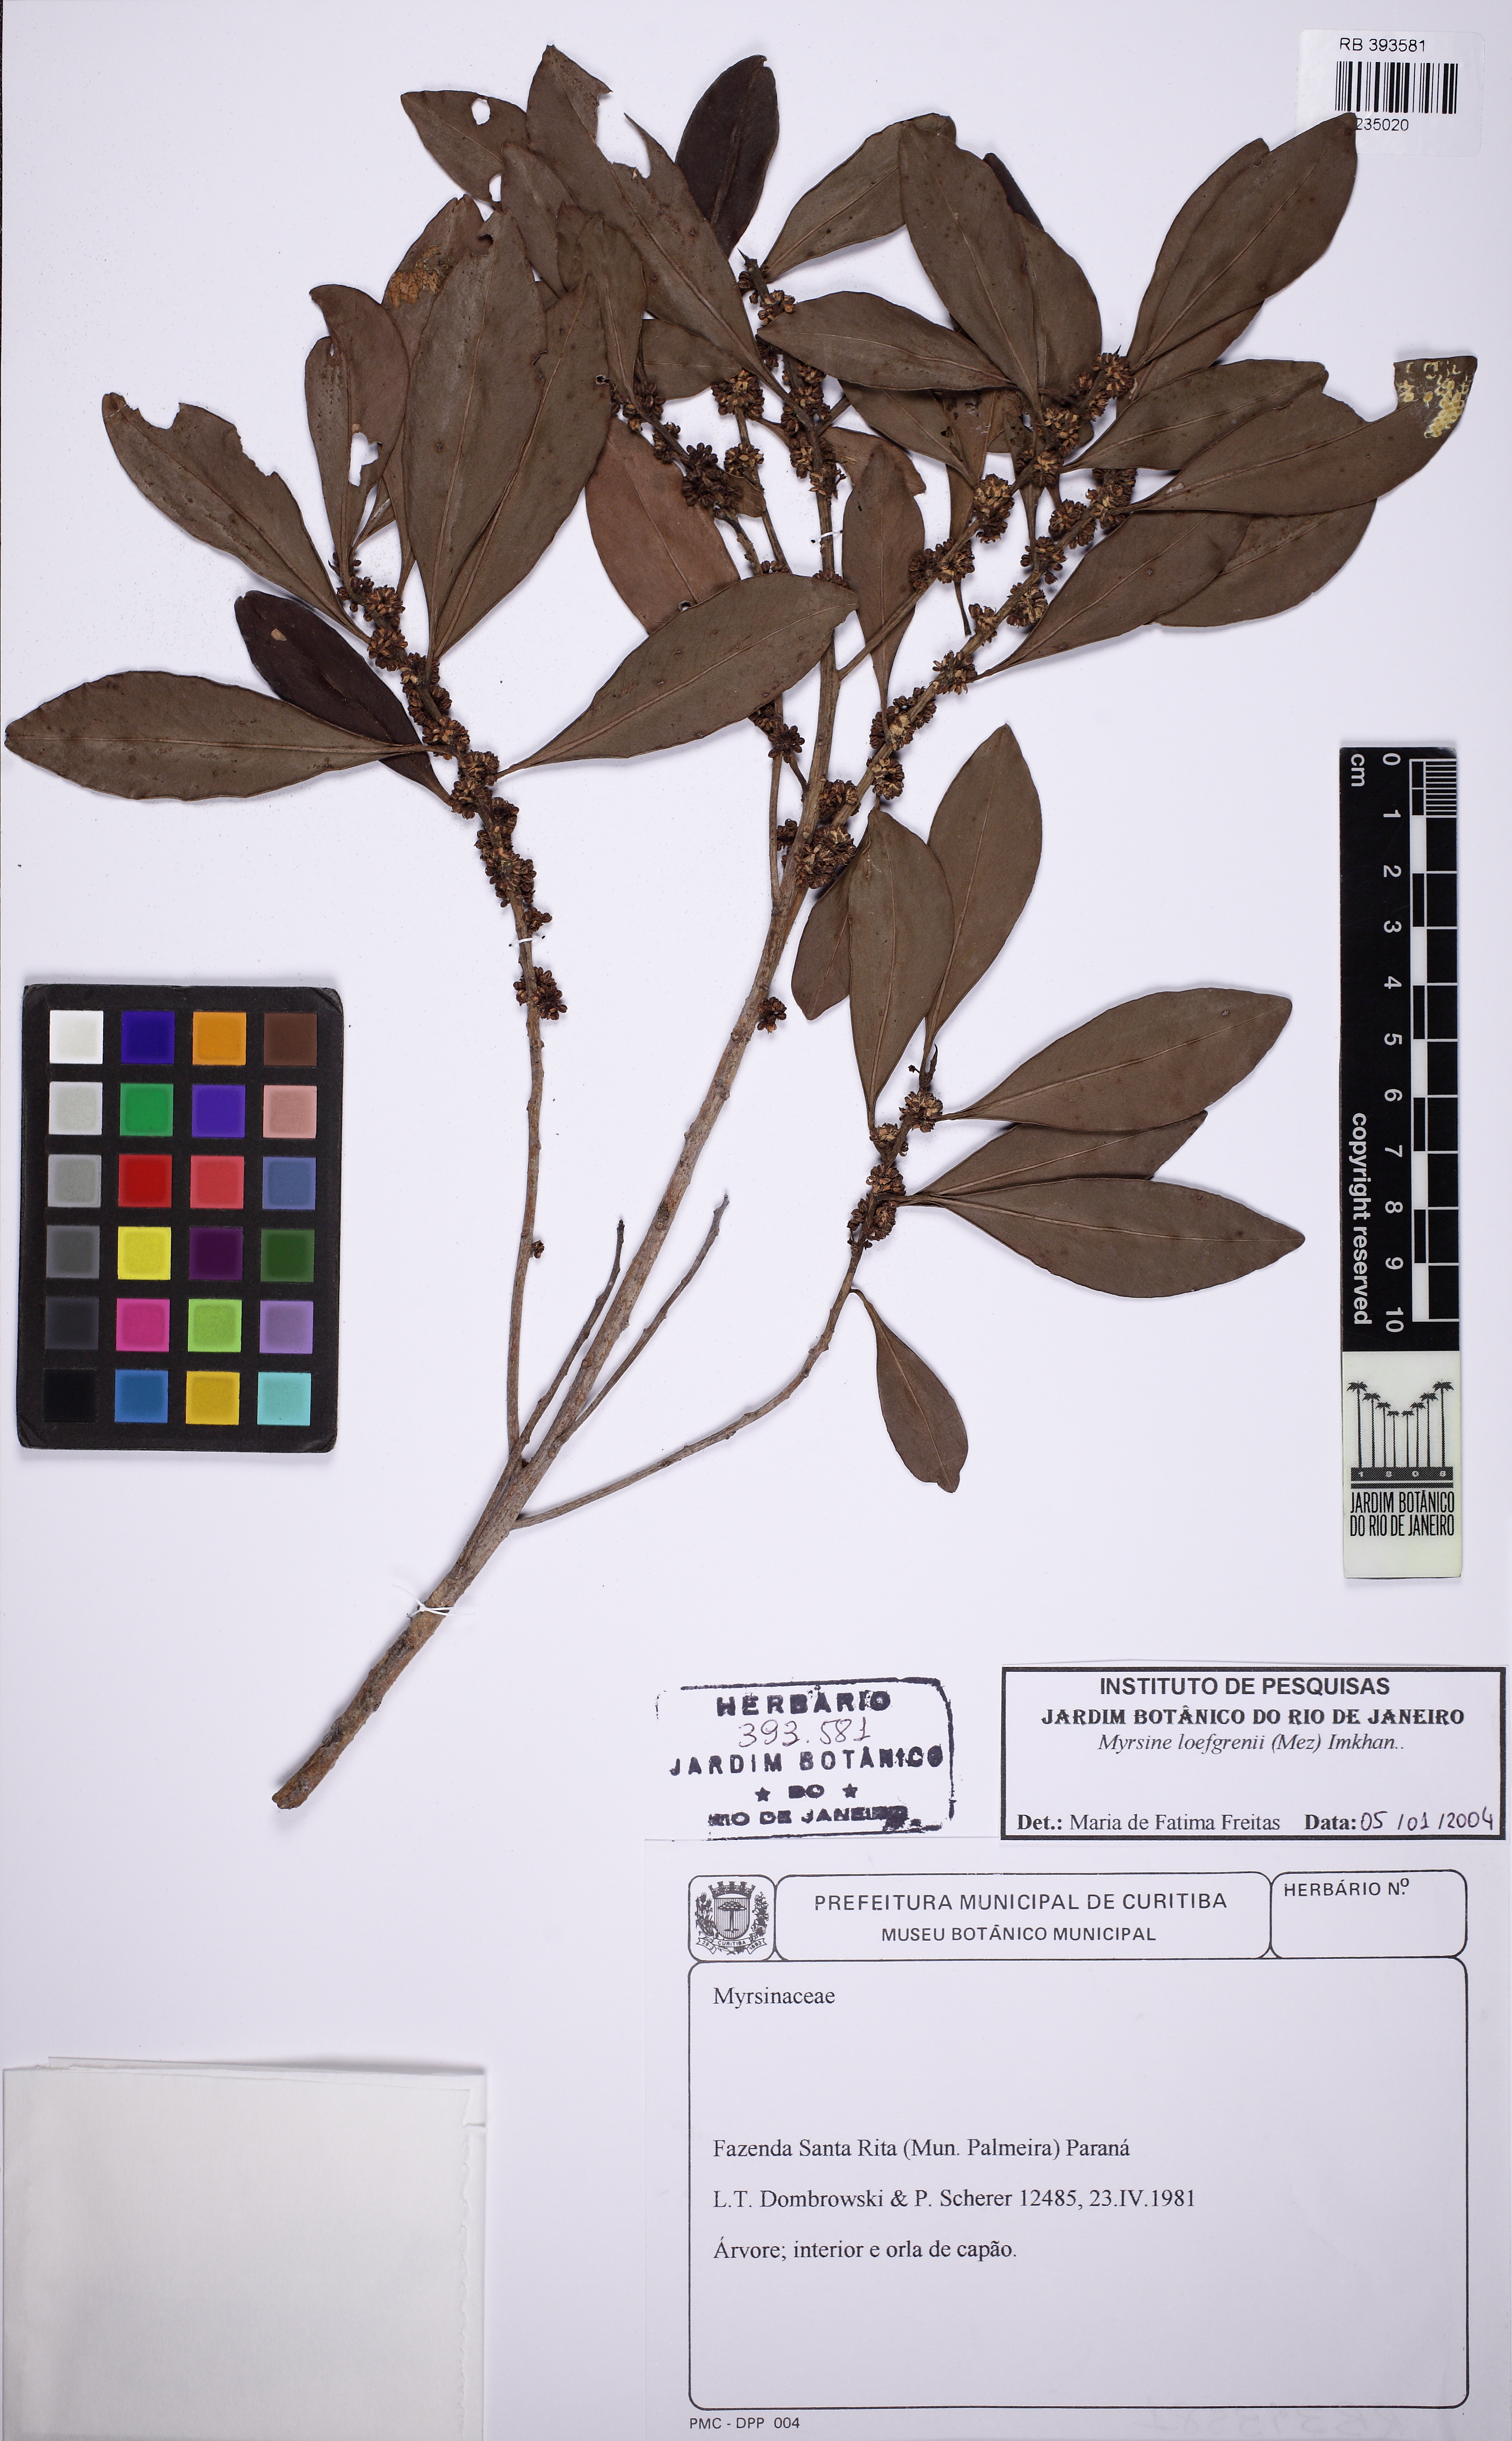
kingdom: Plantae
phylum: Tracheophyta
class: Magnoliopsida
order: Ericales
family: Primulaceae
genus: Myrsine
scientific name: Myrsine loefgrenii
